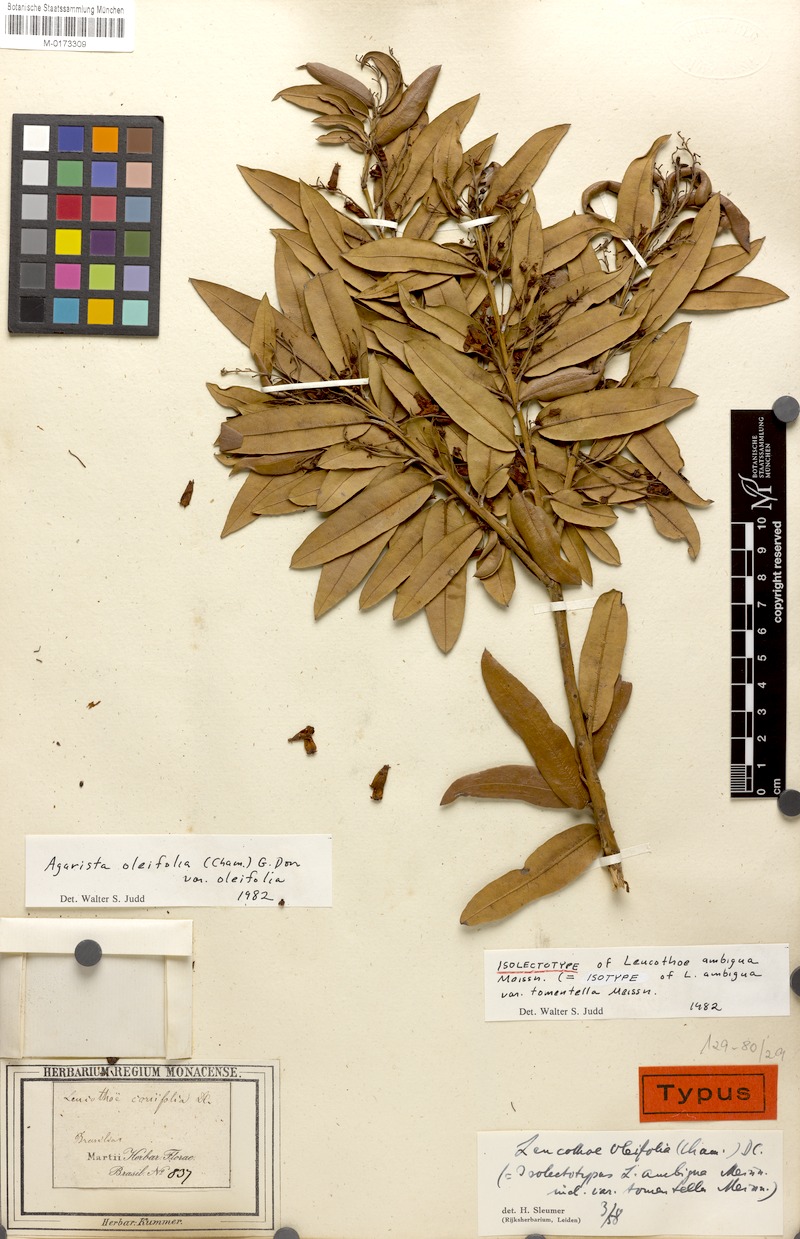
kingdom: Plantae
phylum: Tracheophyta
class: Magnoliopsida
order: Ericales
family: Ericaceae
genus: Agarista
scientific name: Agarista oleifolia
